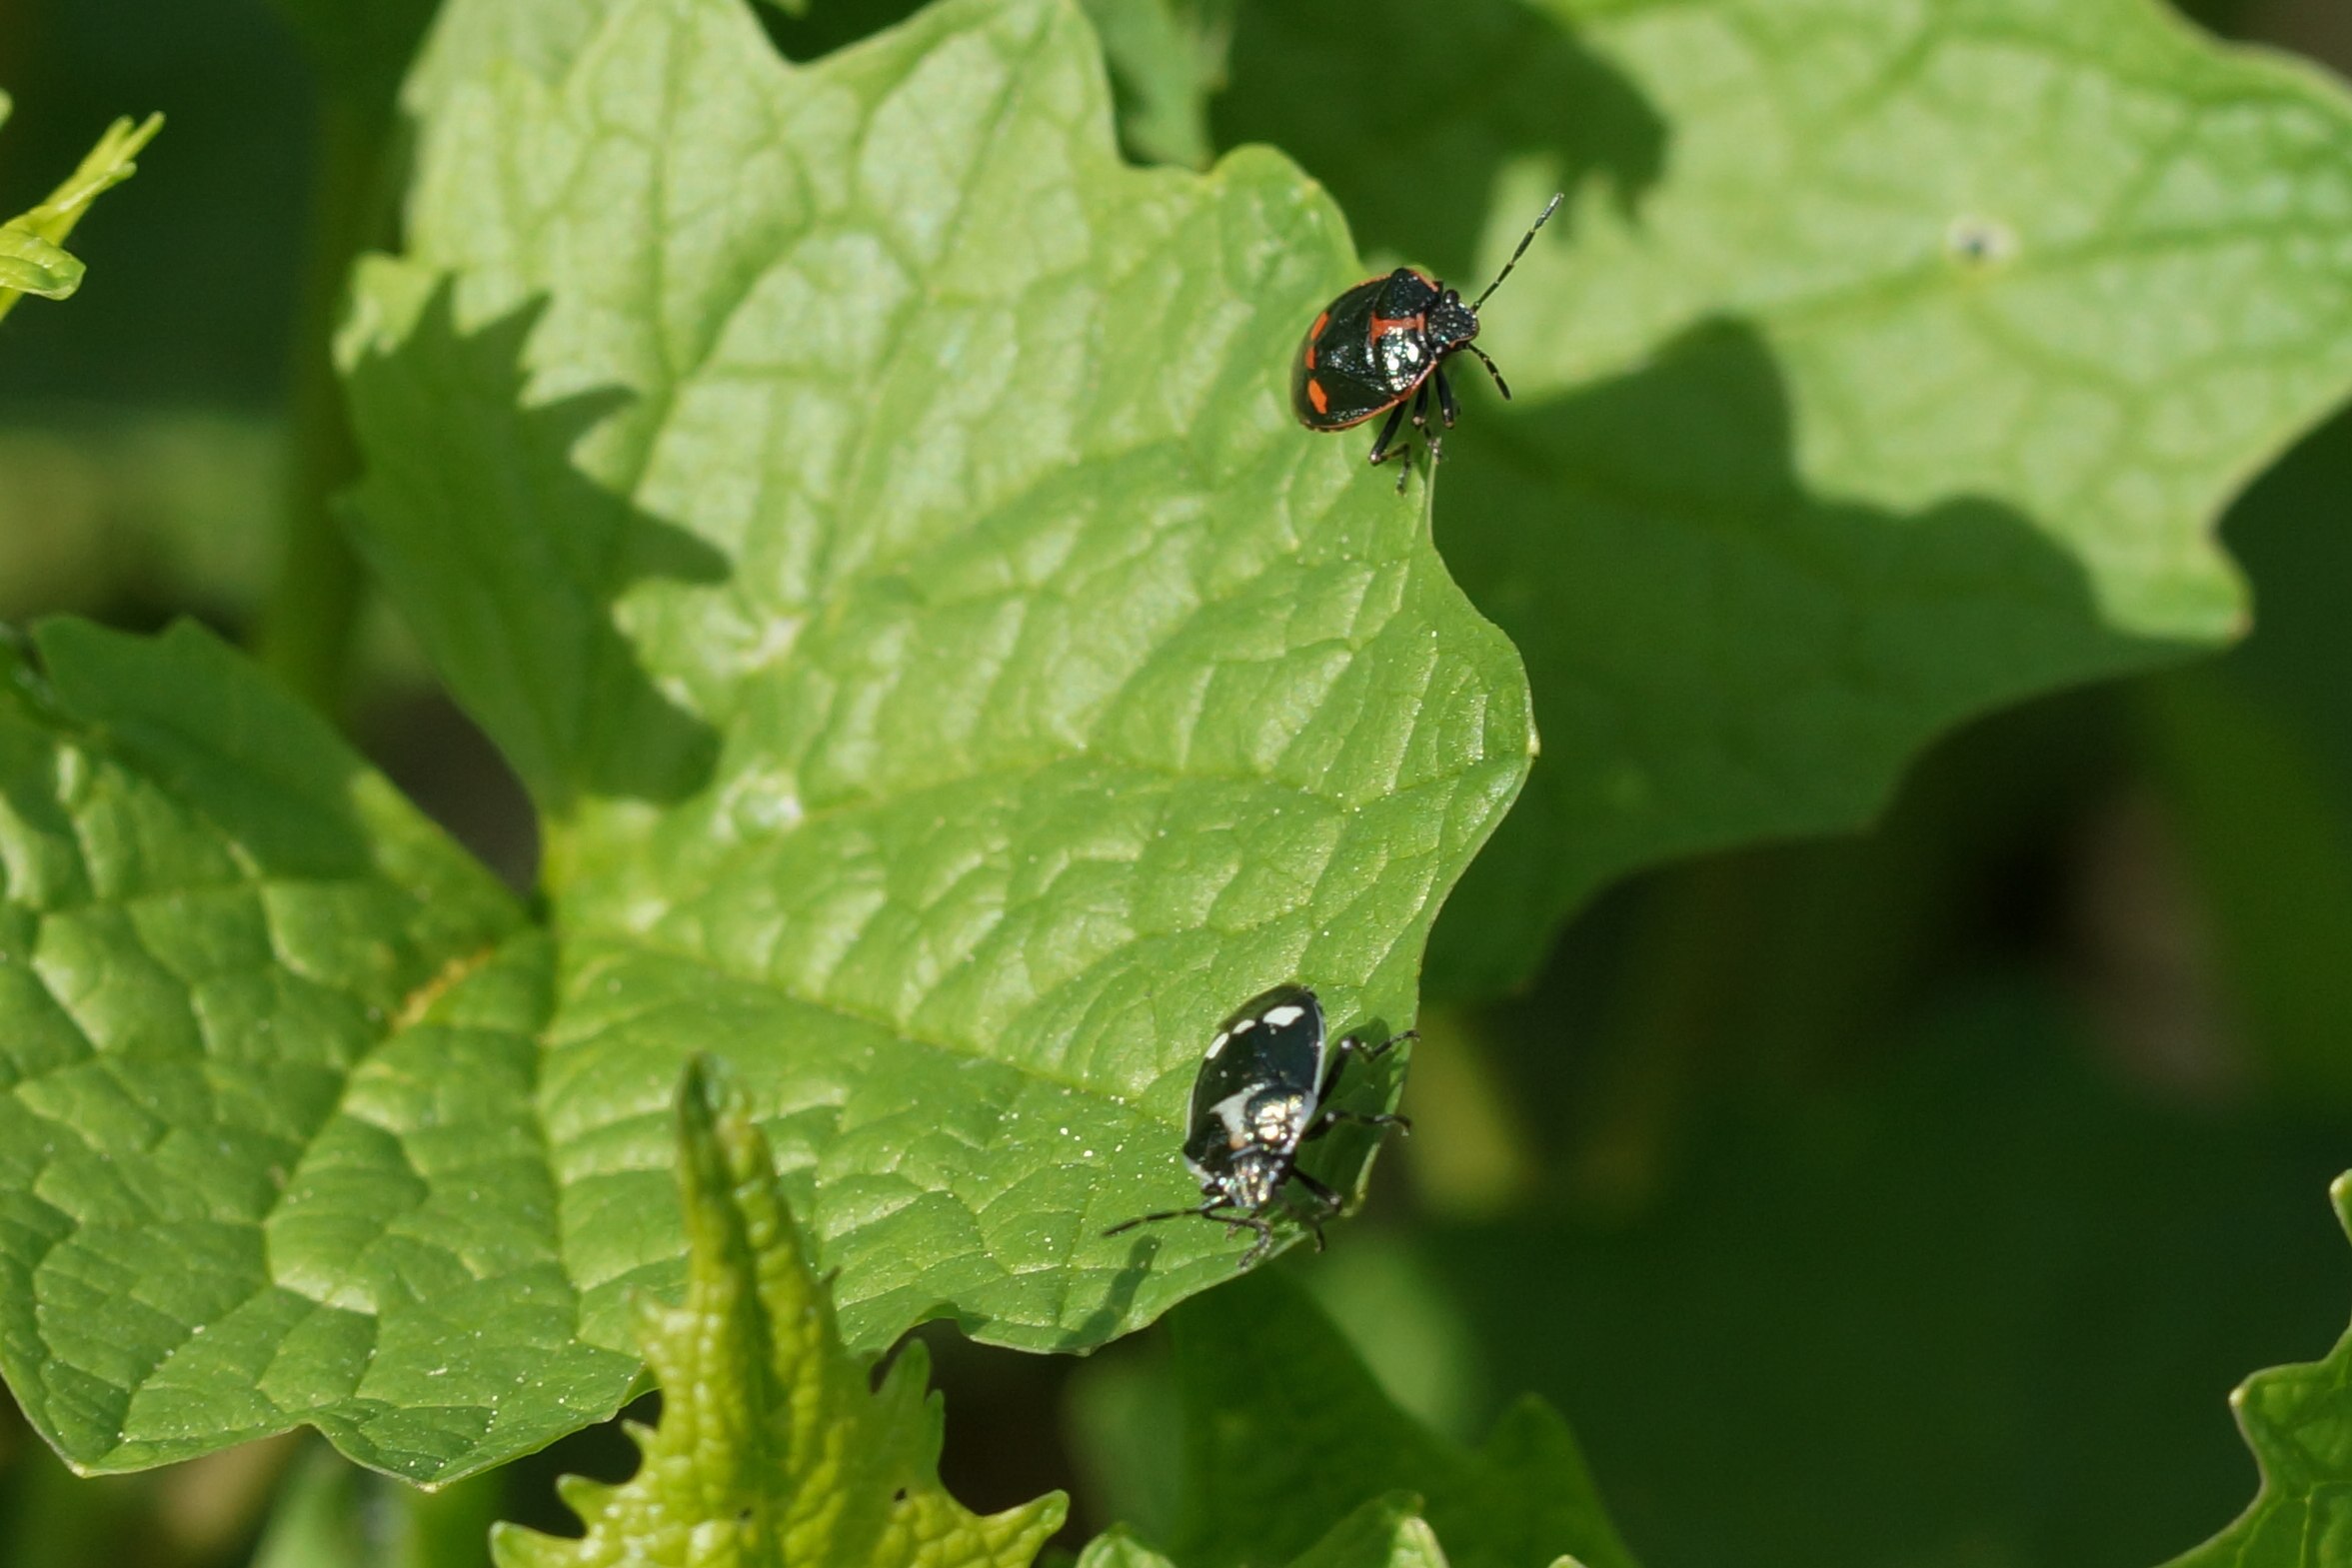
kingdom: Animalia
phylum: Arthropoda
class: Insecta
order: Hemiptera
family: Pentatomidae
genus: Eurydema
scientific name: Eurydema oleracea
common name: Almindelig kåltæge
